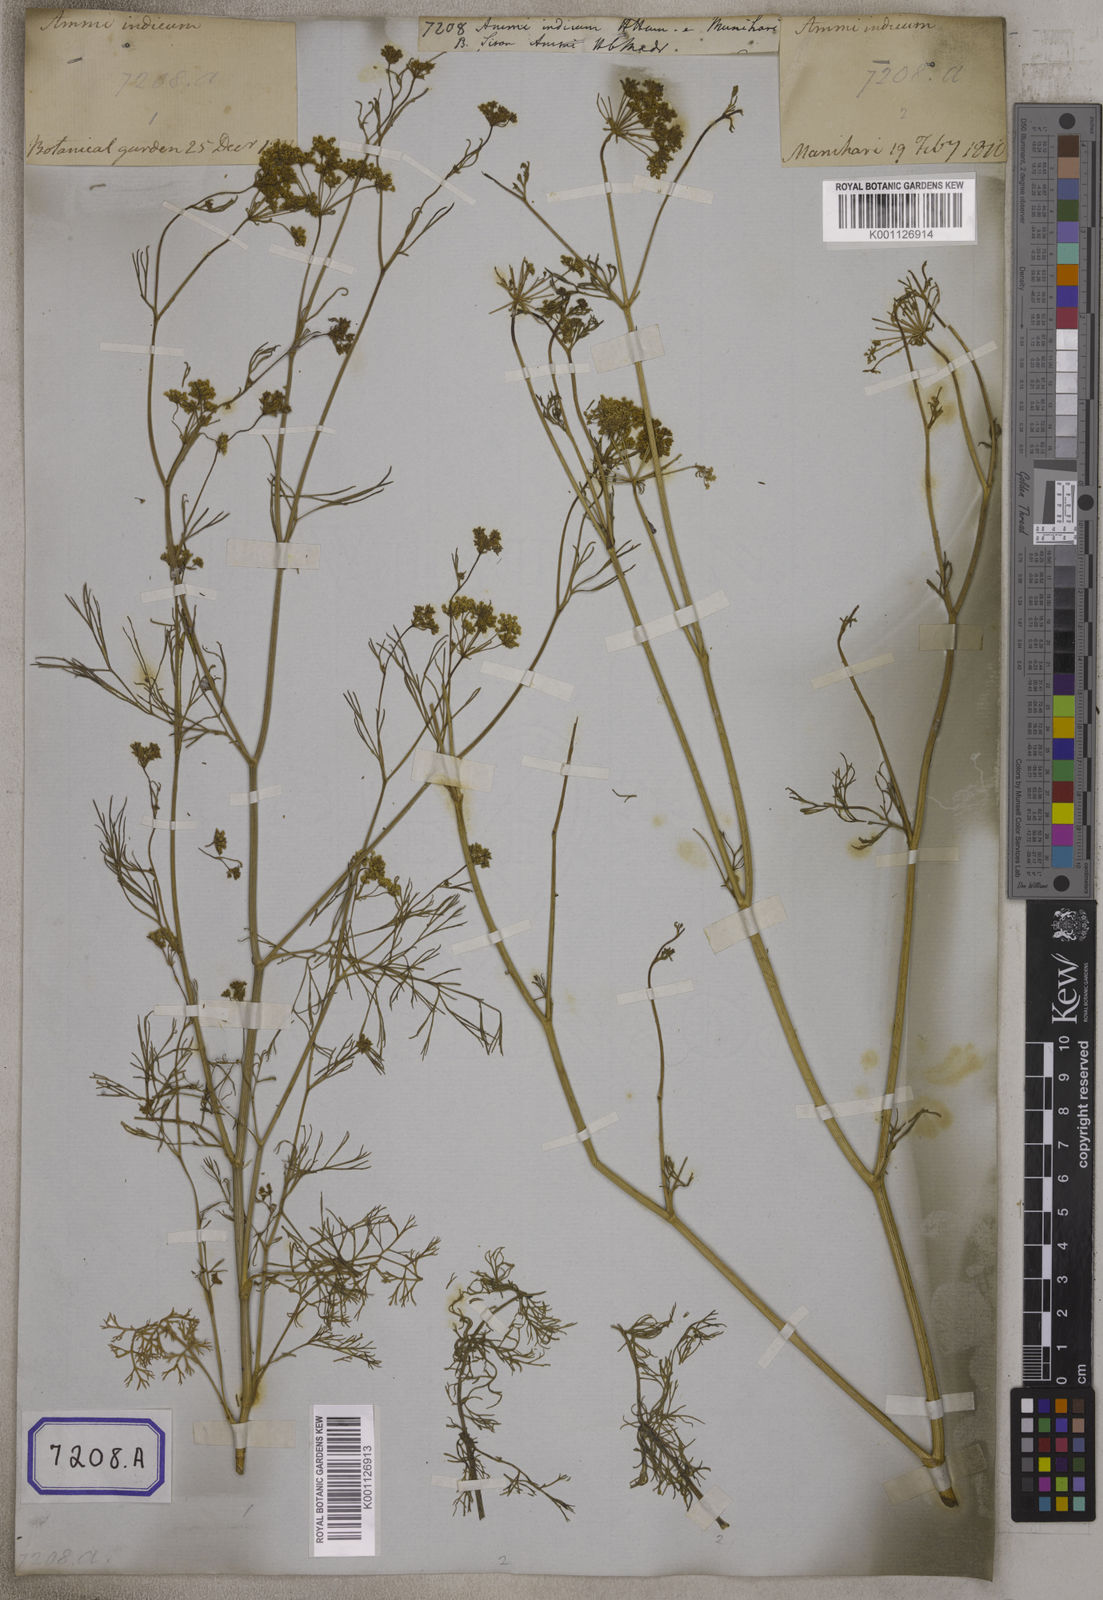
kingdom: Plantae
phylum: Tracheophyta
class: Magnoliopsida
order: Apiales
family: Apiaceae
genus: Ammi
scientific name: Ammi
